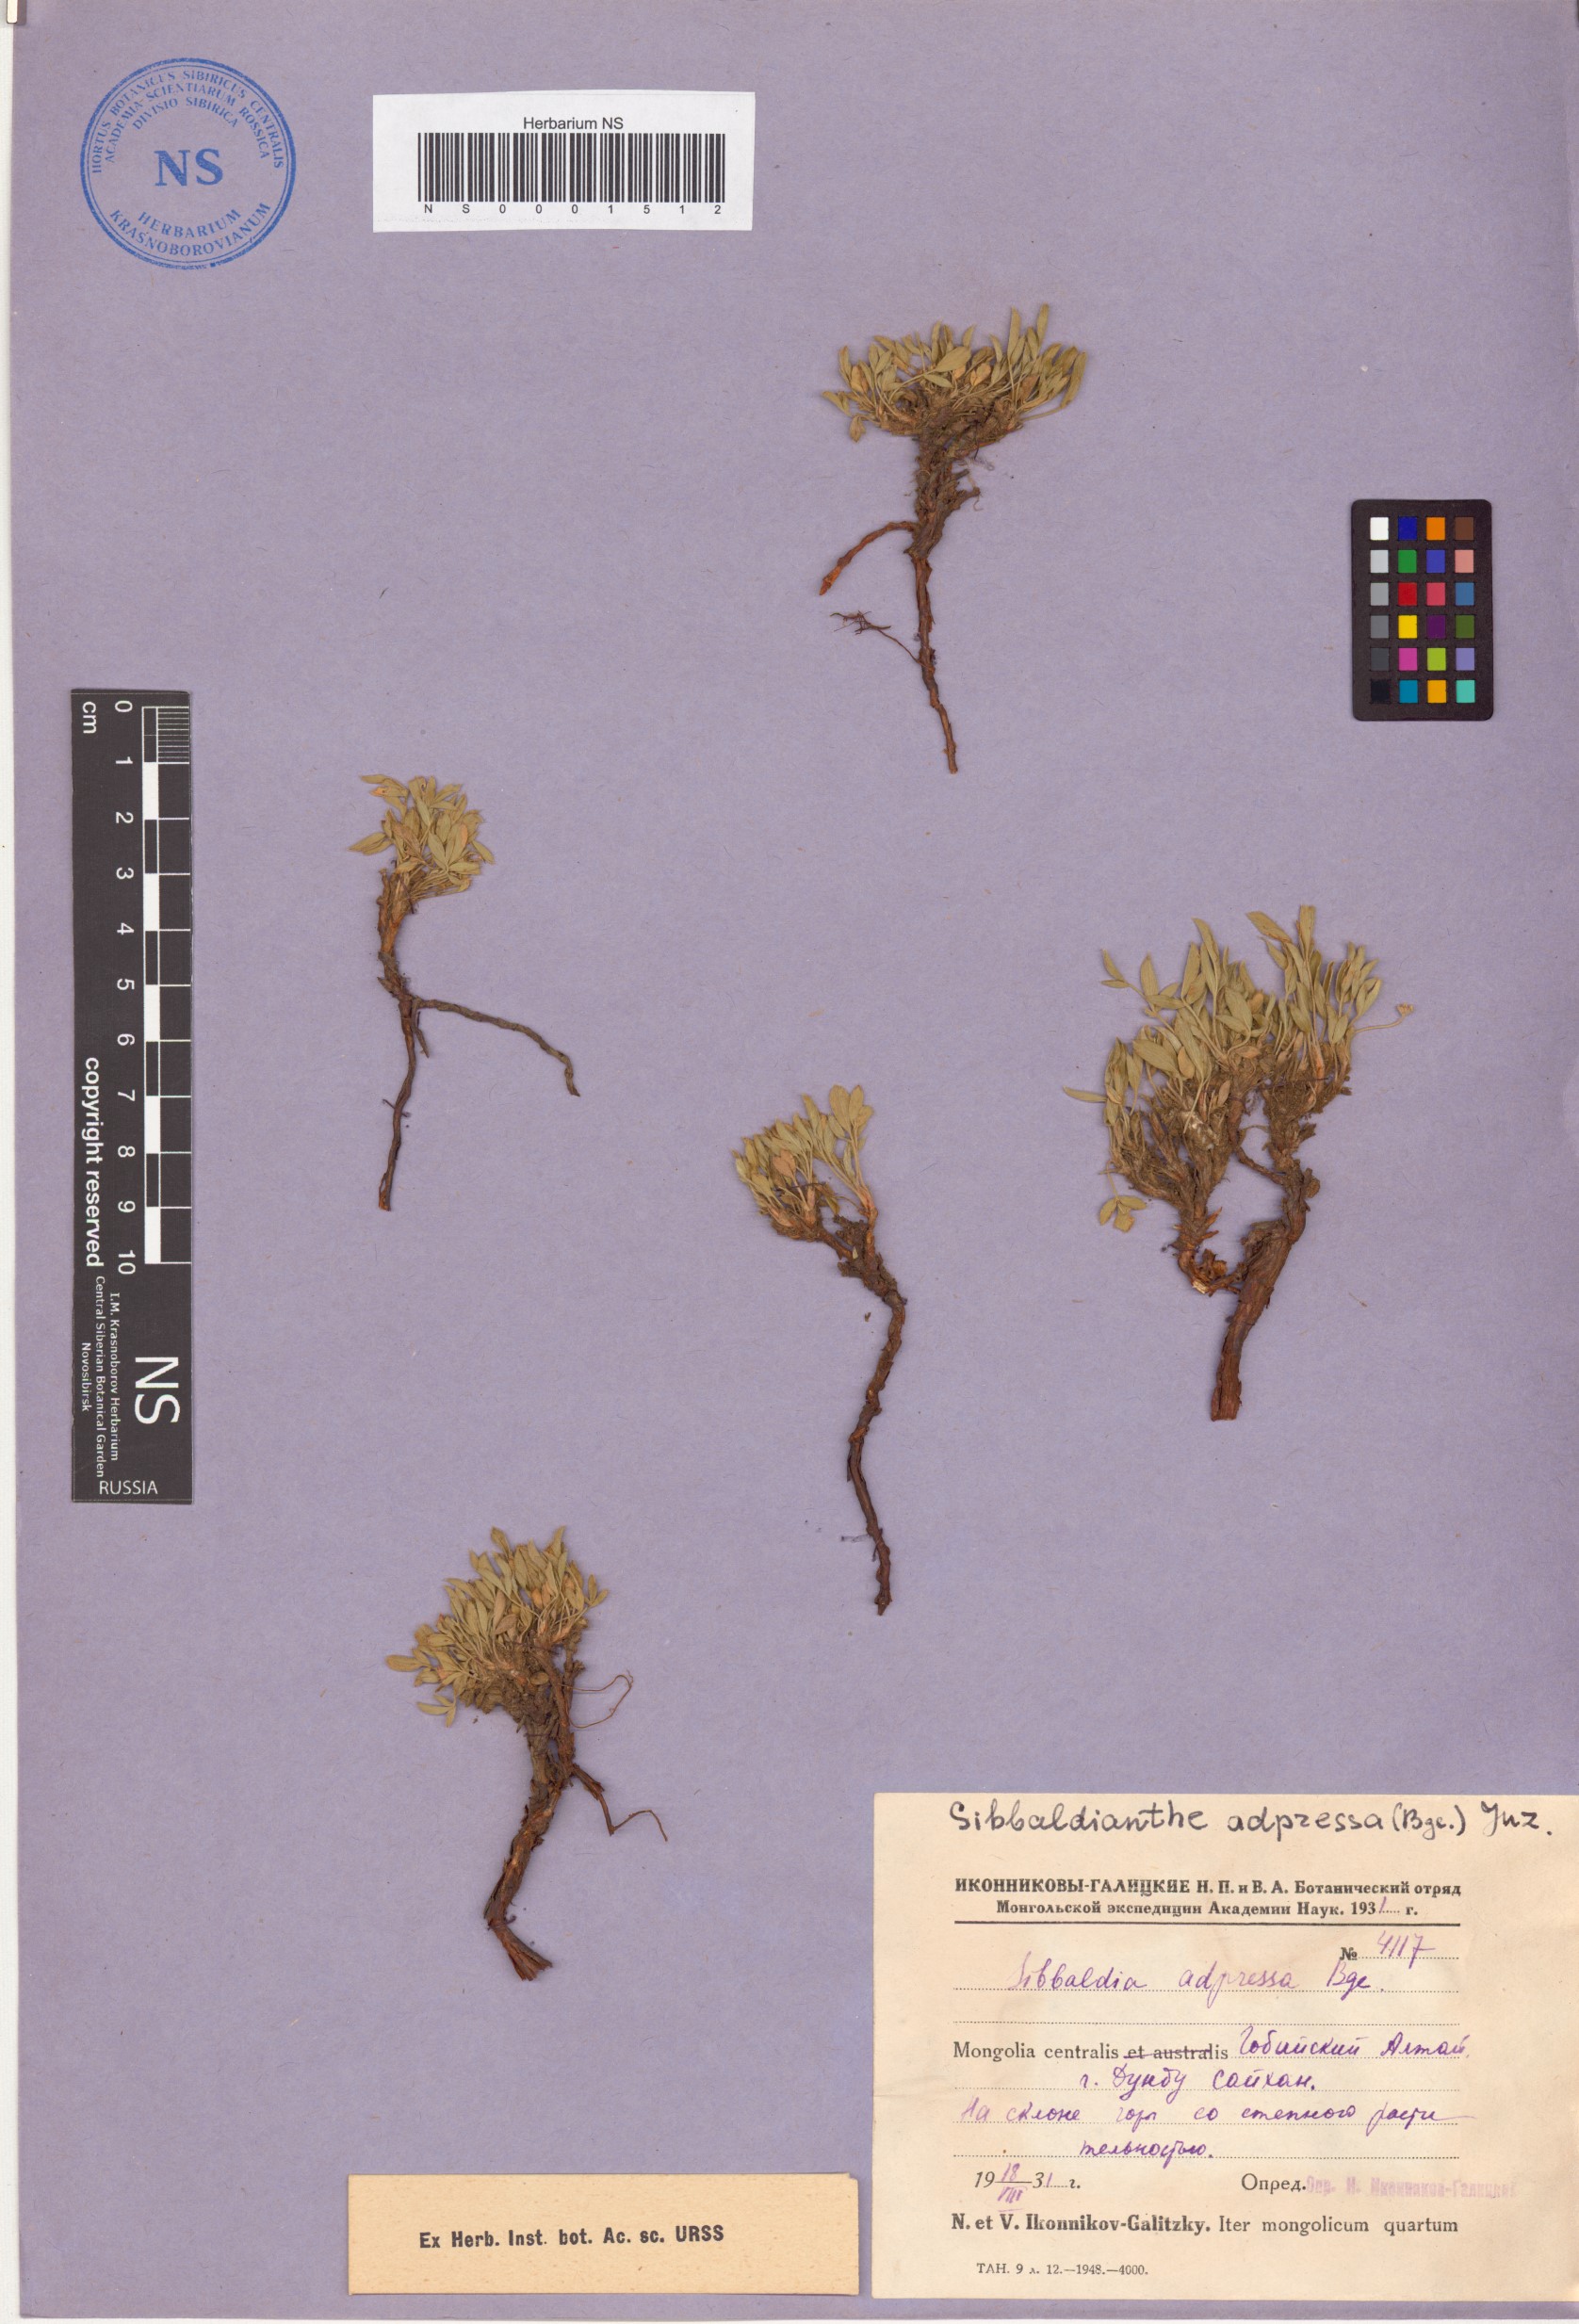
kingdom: Plantae
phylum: Tracheophyta
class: Magnoliopsida
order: Rosales
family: Rosaceae
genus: Sibbaldianthe
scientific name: Sibbaldianthe adpressa
